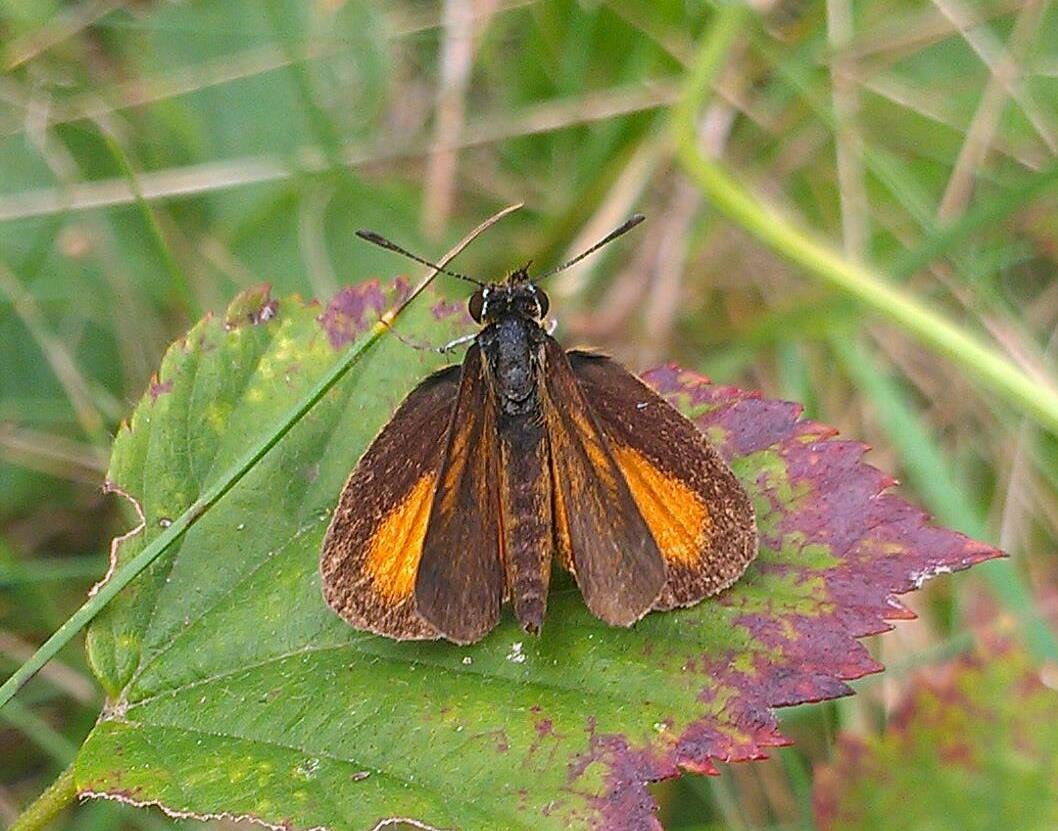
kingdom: Animalia
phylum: Arthropoda
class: Insecta
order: Lepidoptera
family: Hesperiidae
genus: Ancyloxypha
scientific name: Ancyloxypha numitor
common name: Least Skipper
